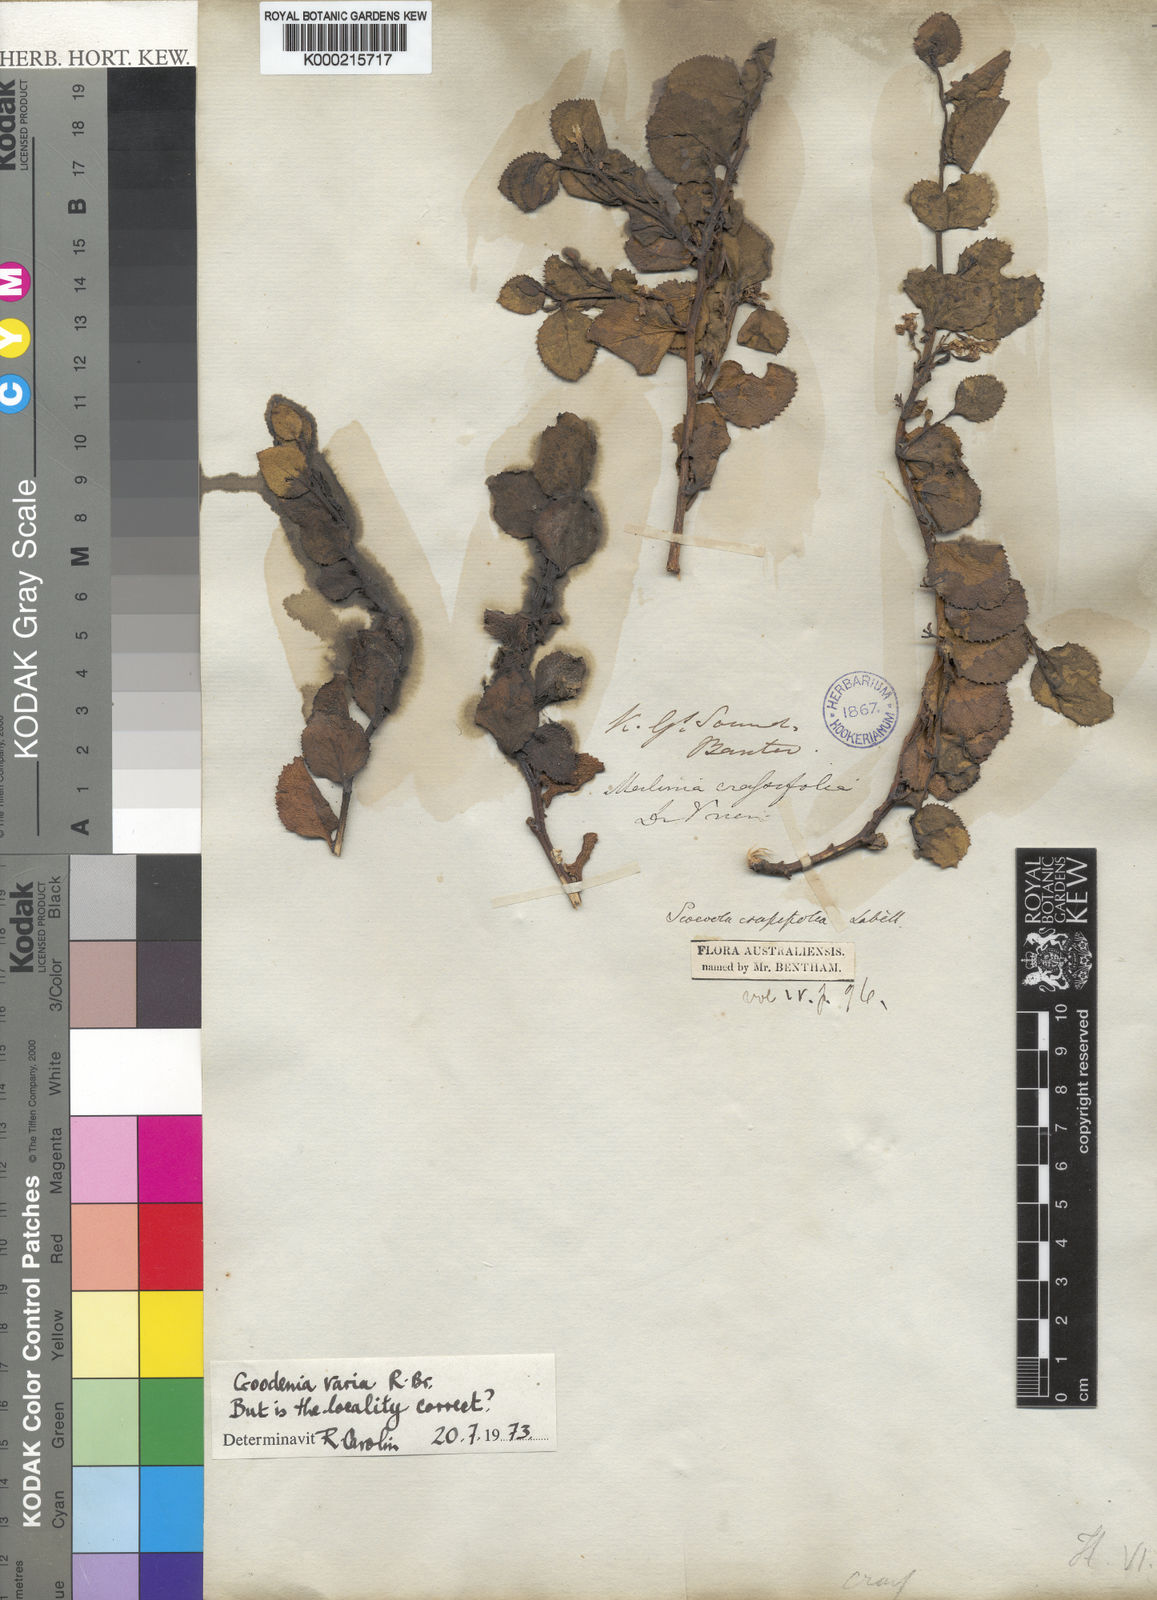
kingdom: Plantae
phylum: Tracheophyta
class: Magnoliopsida
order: Asterales
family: Goodeniaceae
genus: Goodenia
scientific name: Goodenia varia
